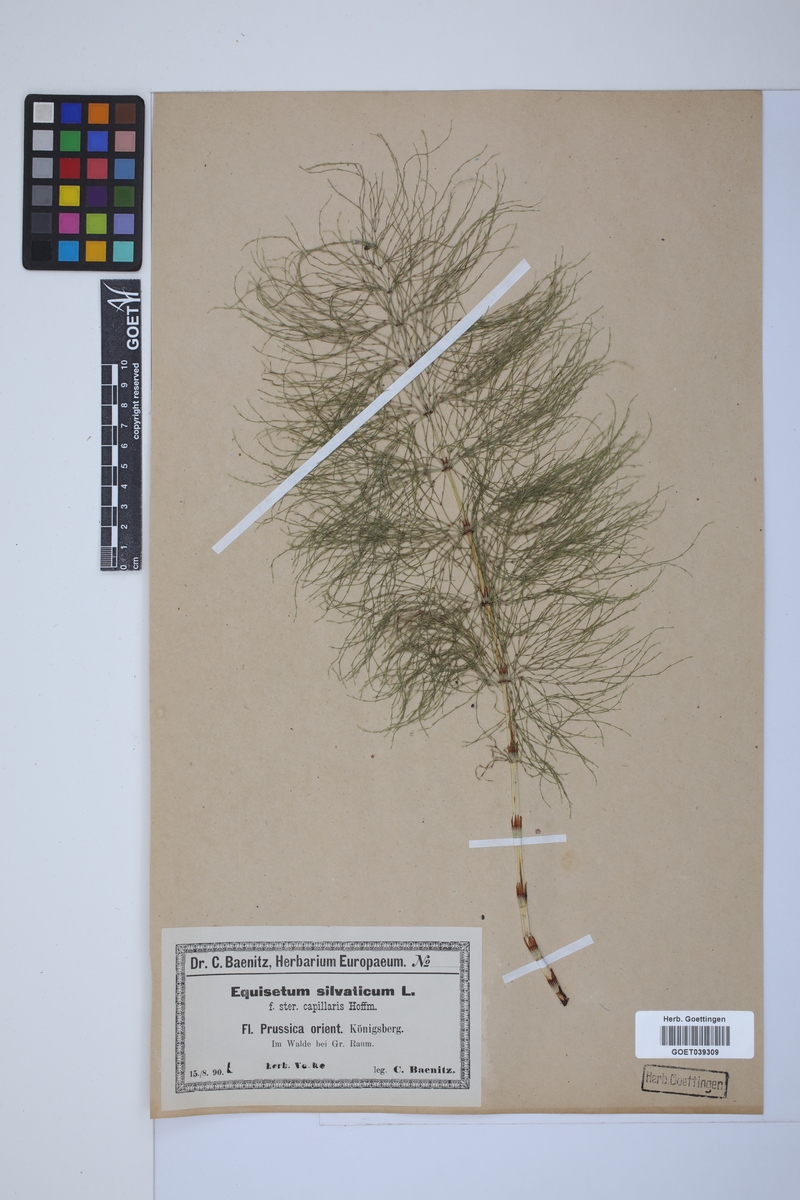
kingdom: Plantae
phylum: Tracheophyta
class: Polypodiopsida
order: Equisetales
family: Equisetaceae
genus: Equisetum
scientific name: Equisetum sylvaticum
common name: Wood horsetail
